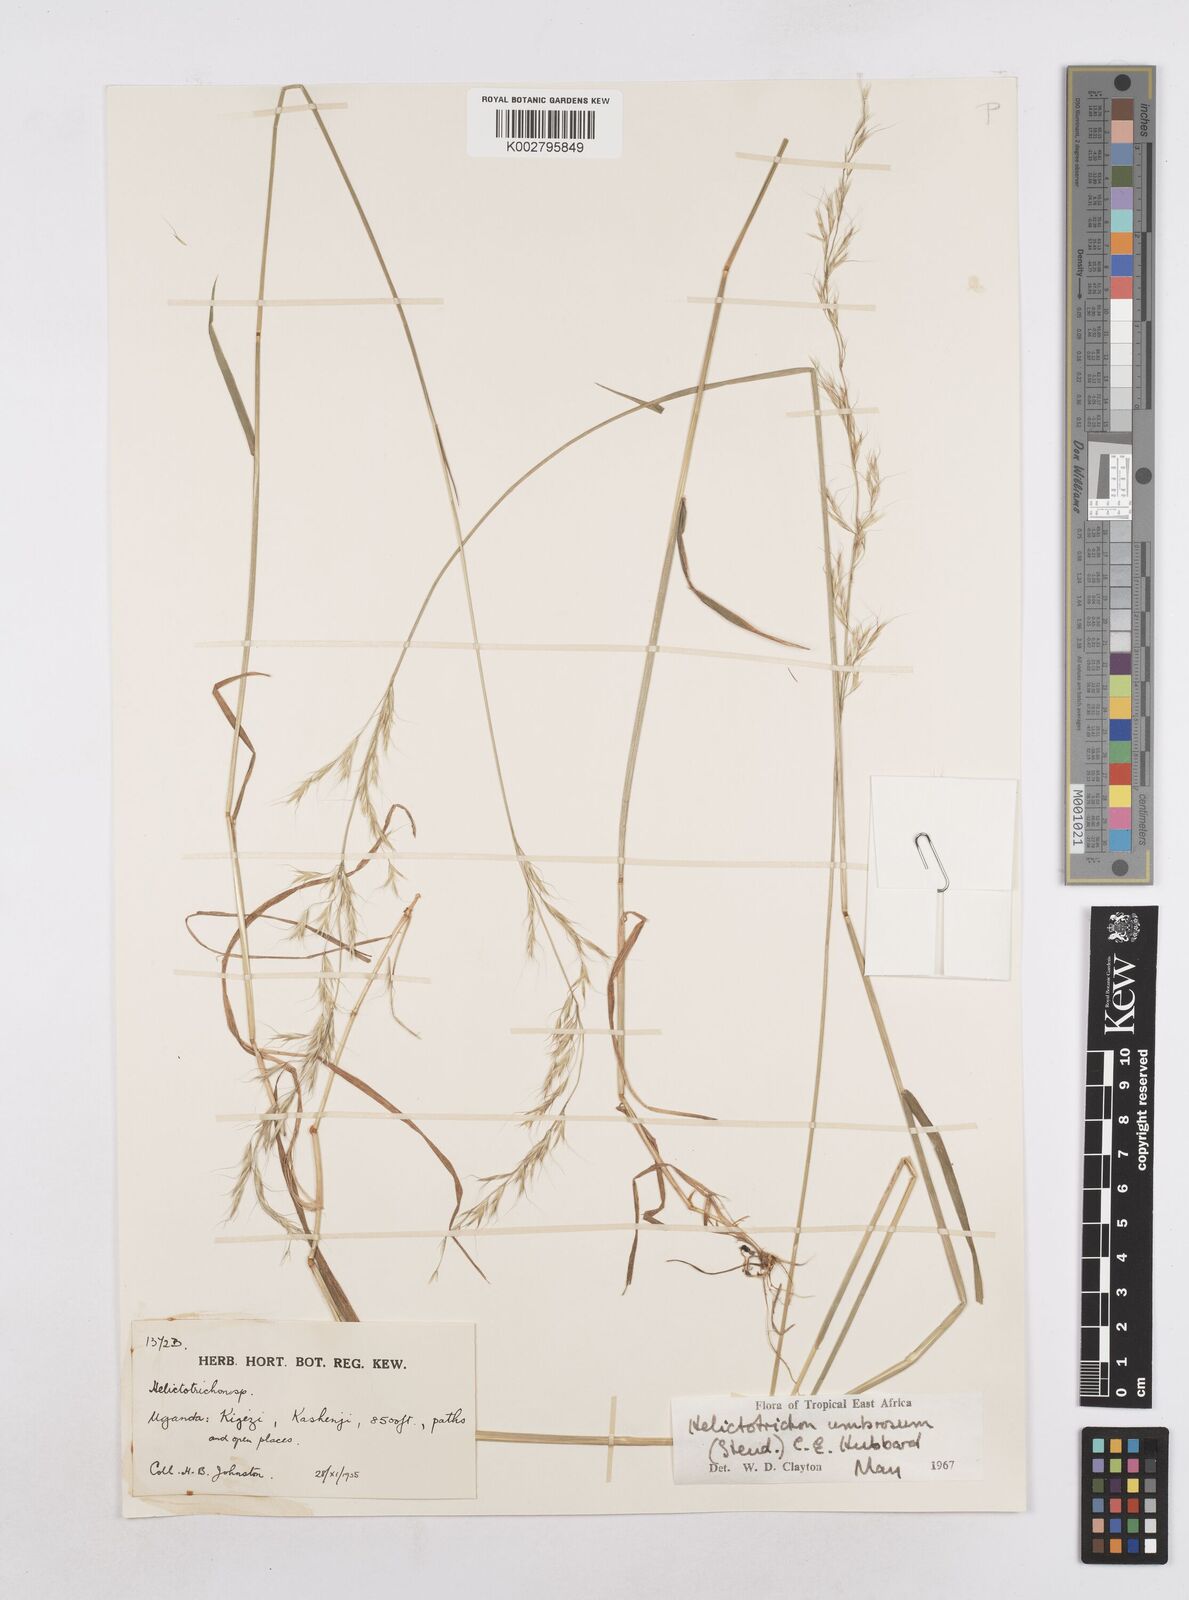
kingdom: Plantae
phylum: Tracheophyta
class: Liliopsida
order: Poales
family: Poaceae
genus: Trisetopsis
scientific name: Trisetopsis umbrosa
